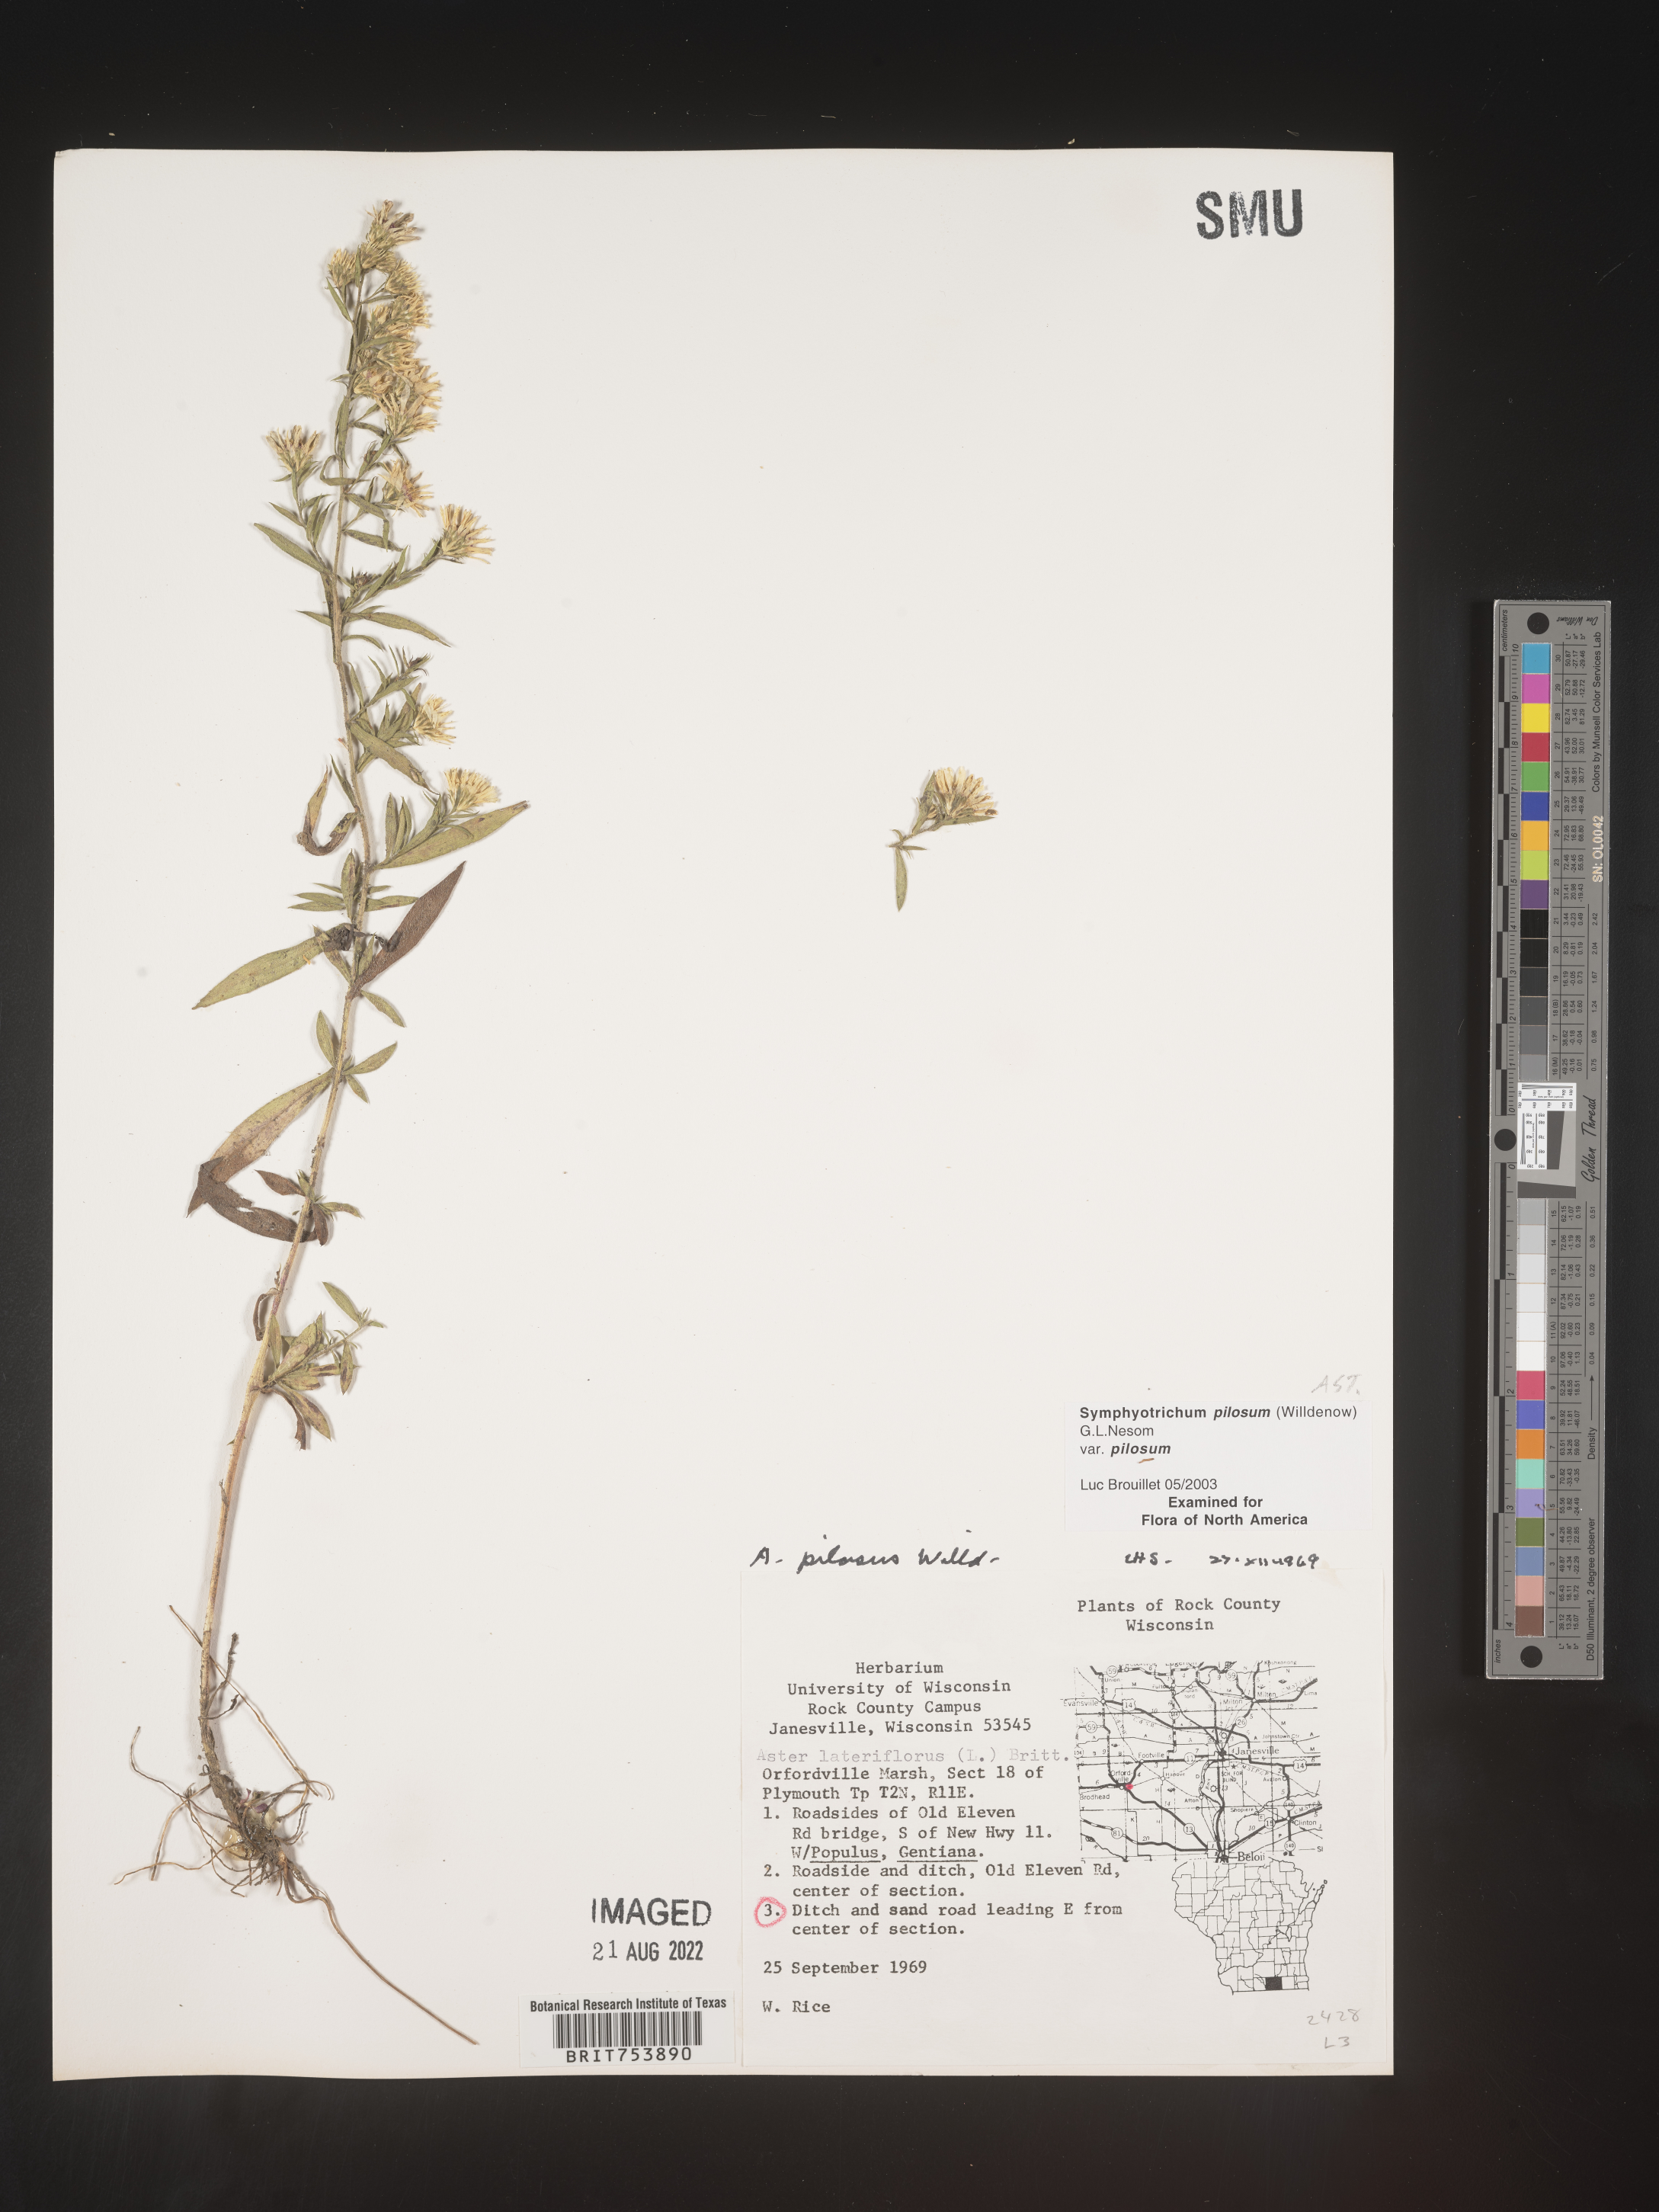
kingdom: Plantae
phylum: Tracheophyta
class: Magnoliopsida
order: Asterales
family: Asteraceae
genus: Symphyotrichum
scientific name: Symphyotrichum pilosum
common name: Awl aster
